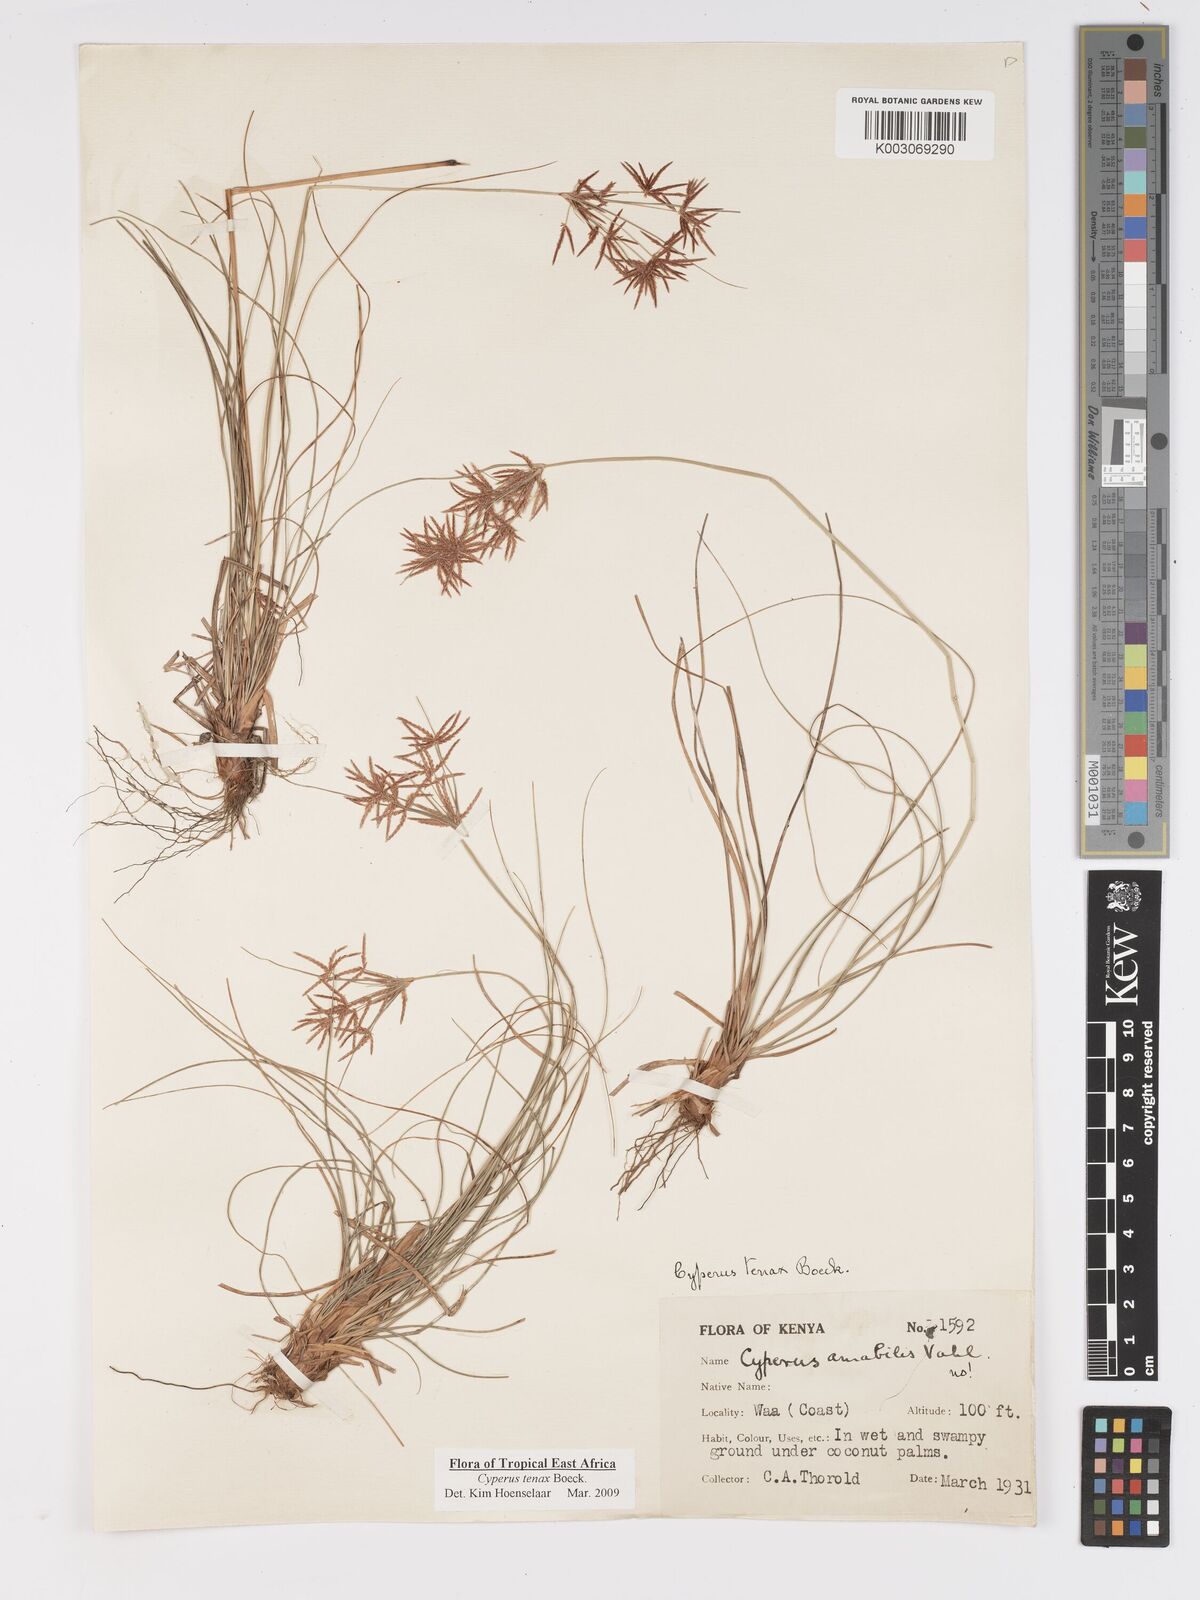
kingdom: Plantae
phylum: Tracheophyta
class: Liliopsida
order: Poales
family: Cyperaceae
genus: Cyperus
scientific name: Cyperus tenax
